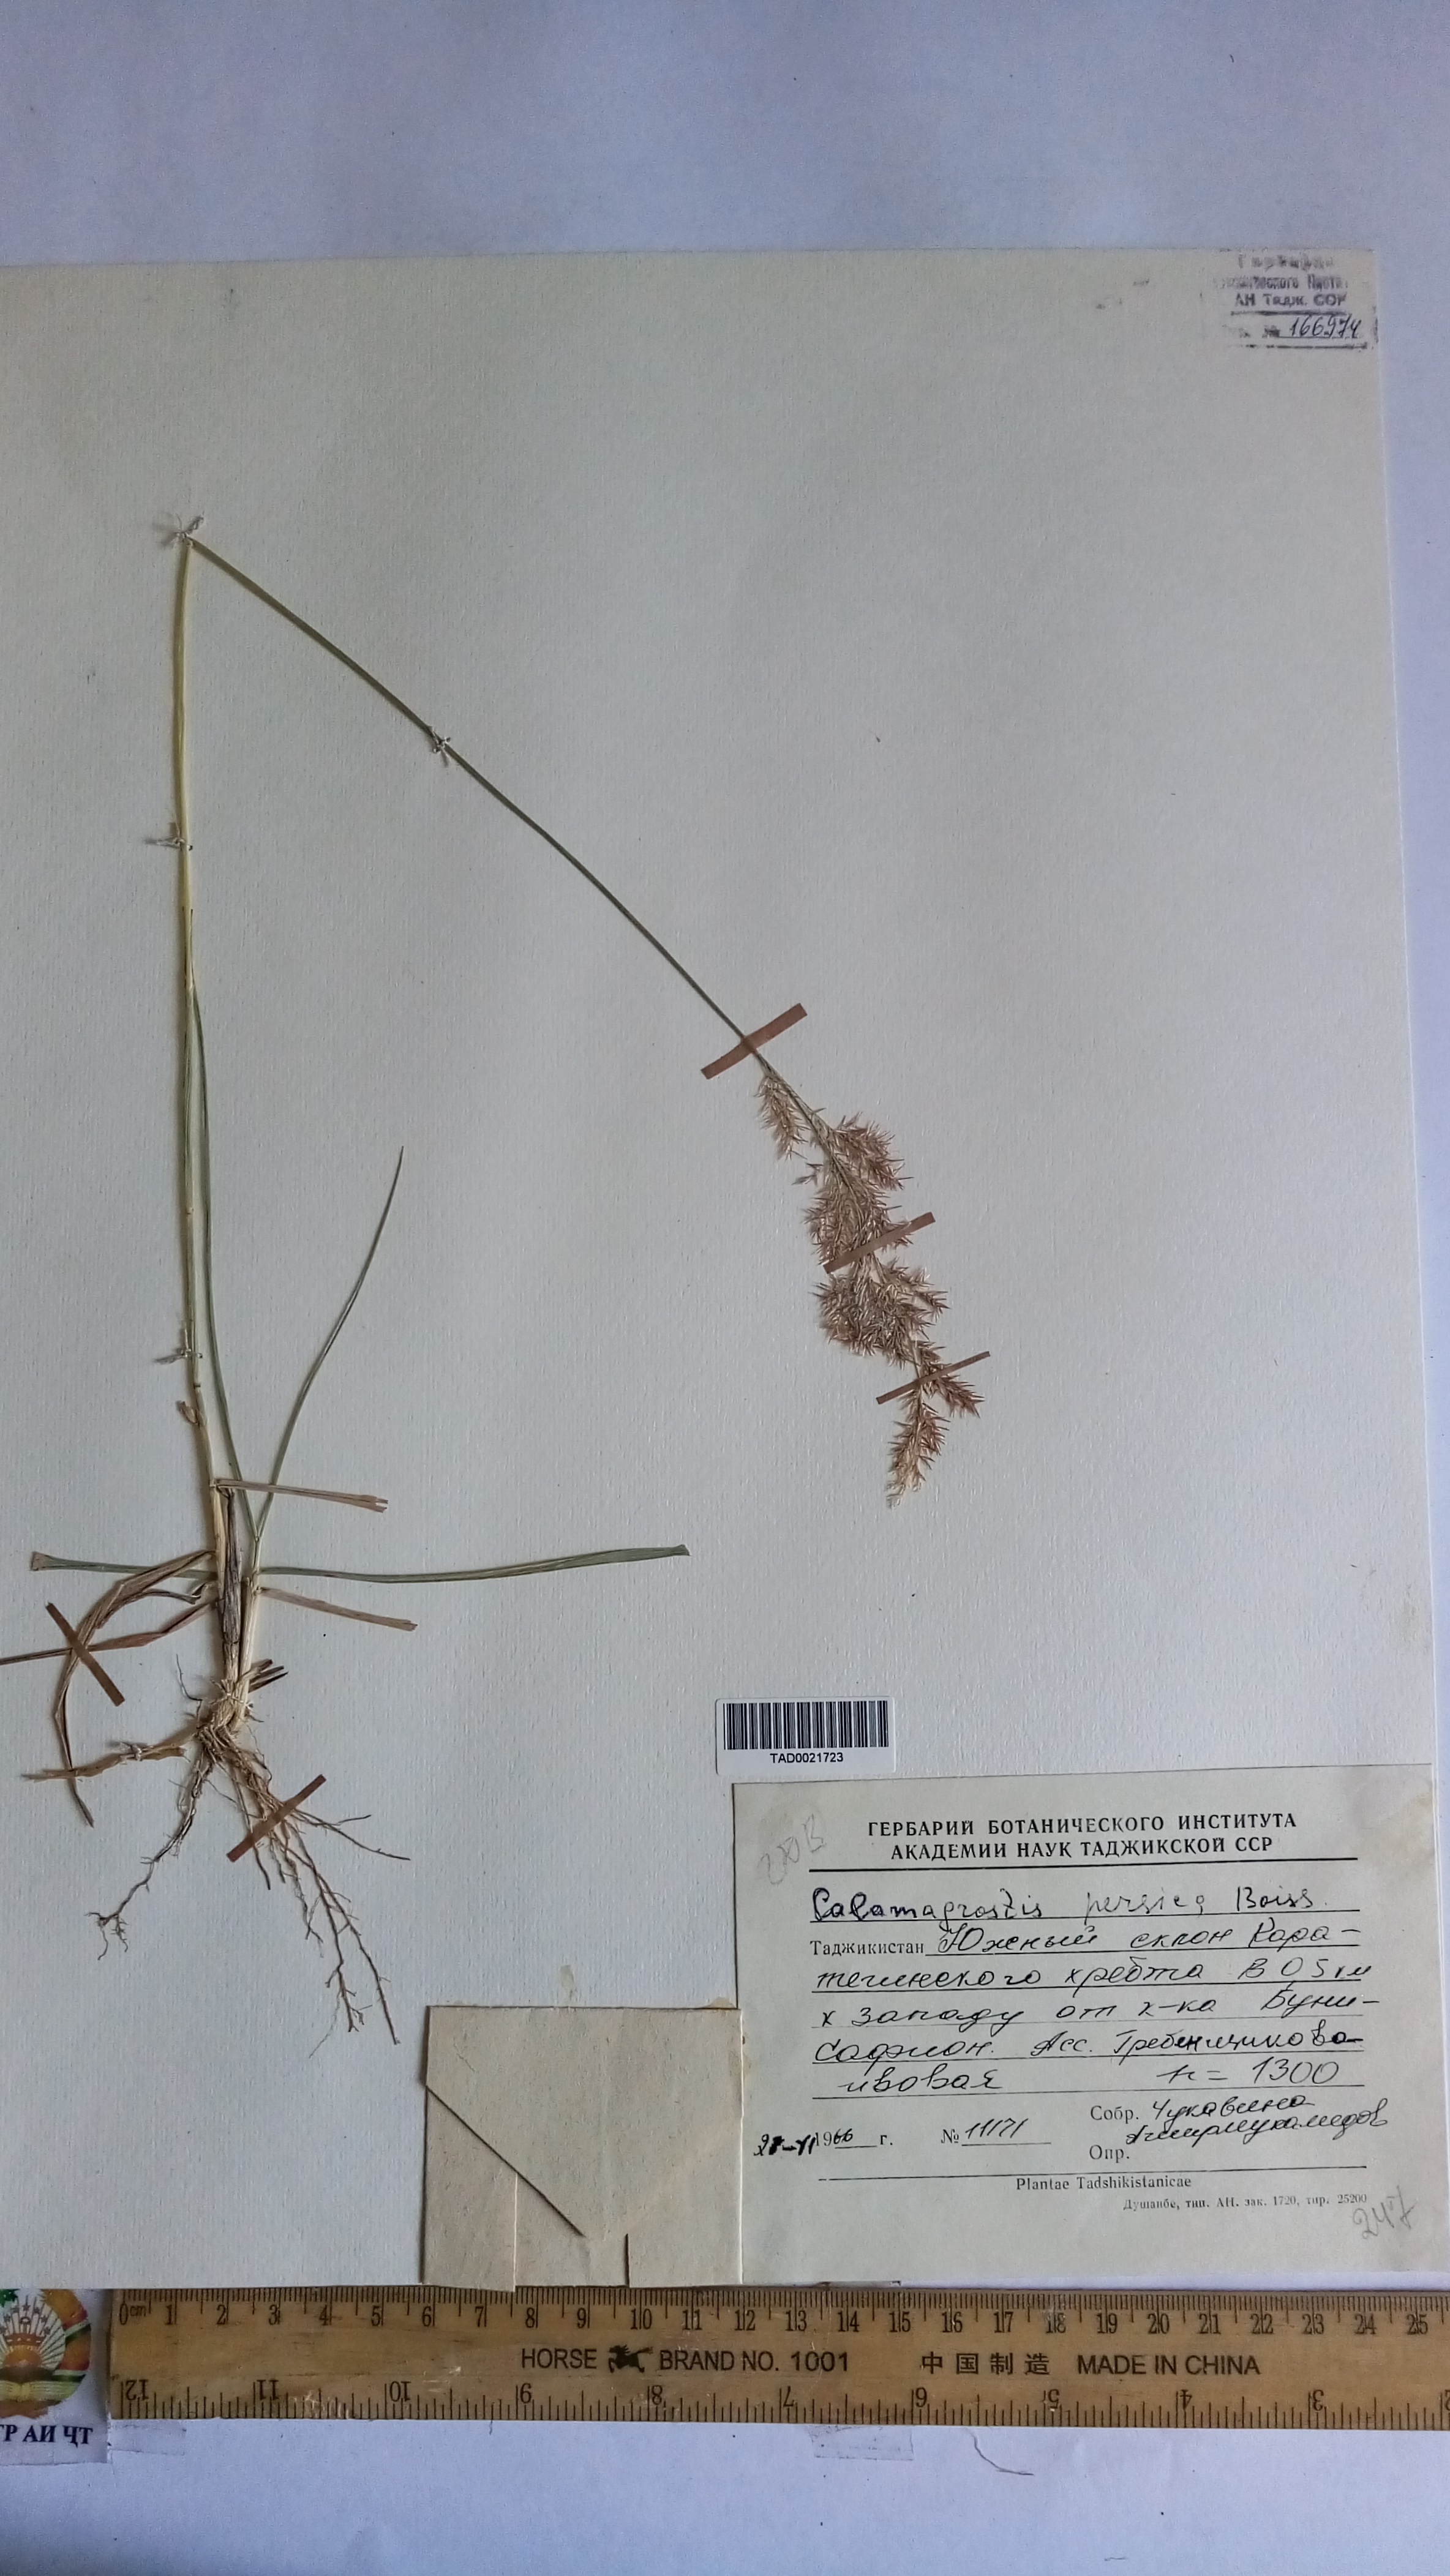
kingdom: Plantae
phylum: Tracheophyta
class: Liliopsida
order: Poales
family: Poaceae
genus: Calamagrostis
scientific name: Calamagrostis pseudophragmites
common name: Coastal small-reed
